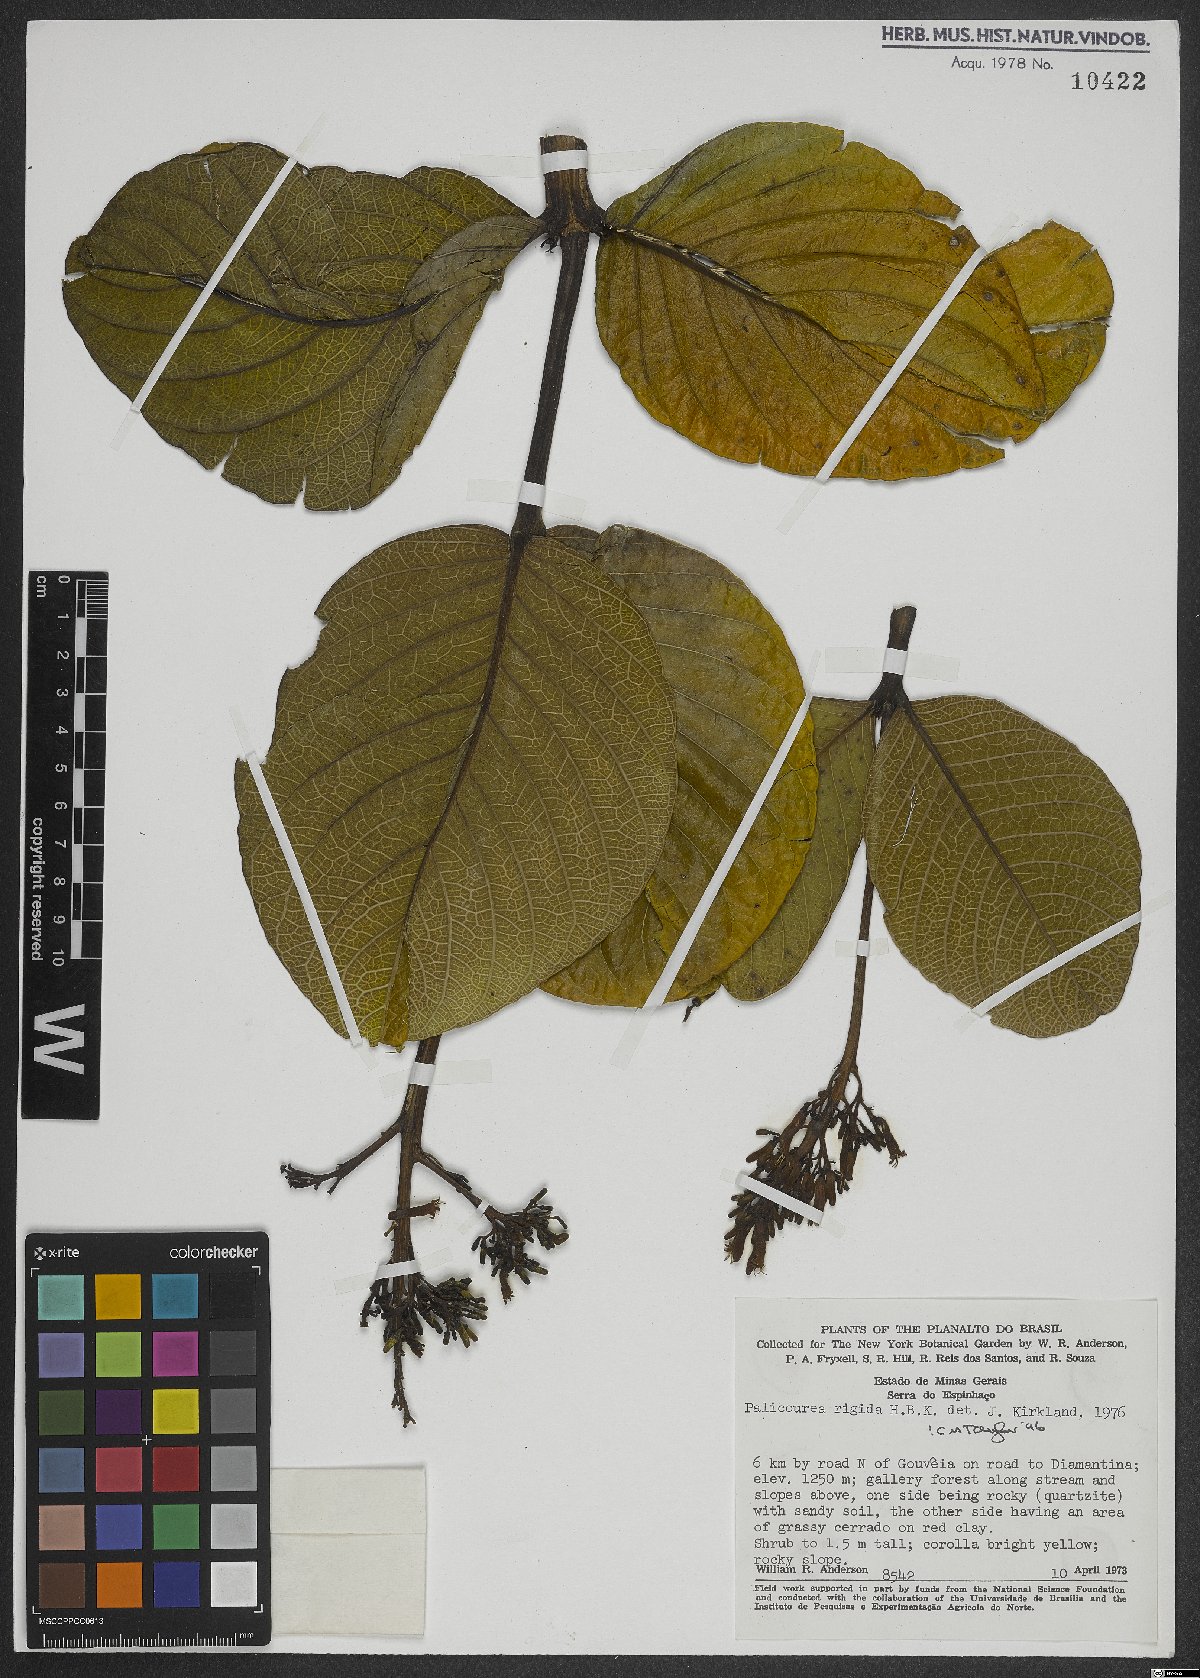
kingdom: Plantae
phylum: Tracheophyta
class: Magnoliopsida
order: Gentianales
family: Rubiaceae
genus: Palicourea
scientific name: Palicourea rigida
